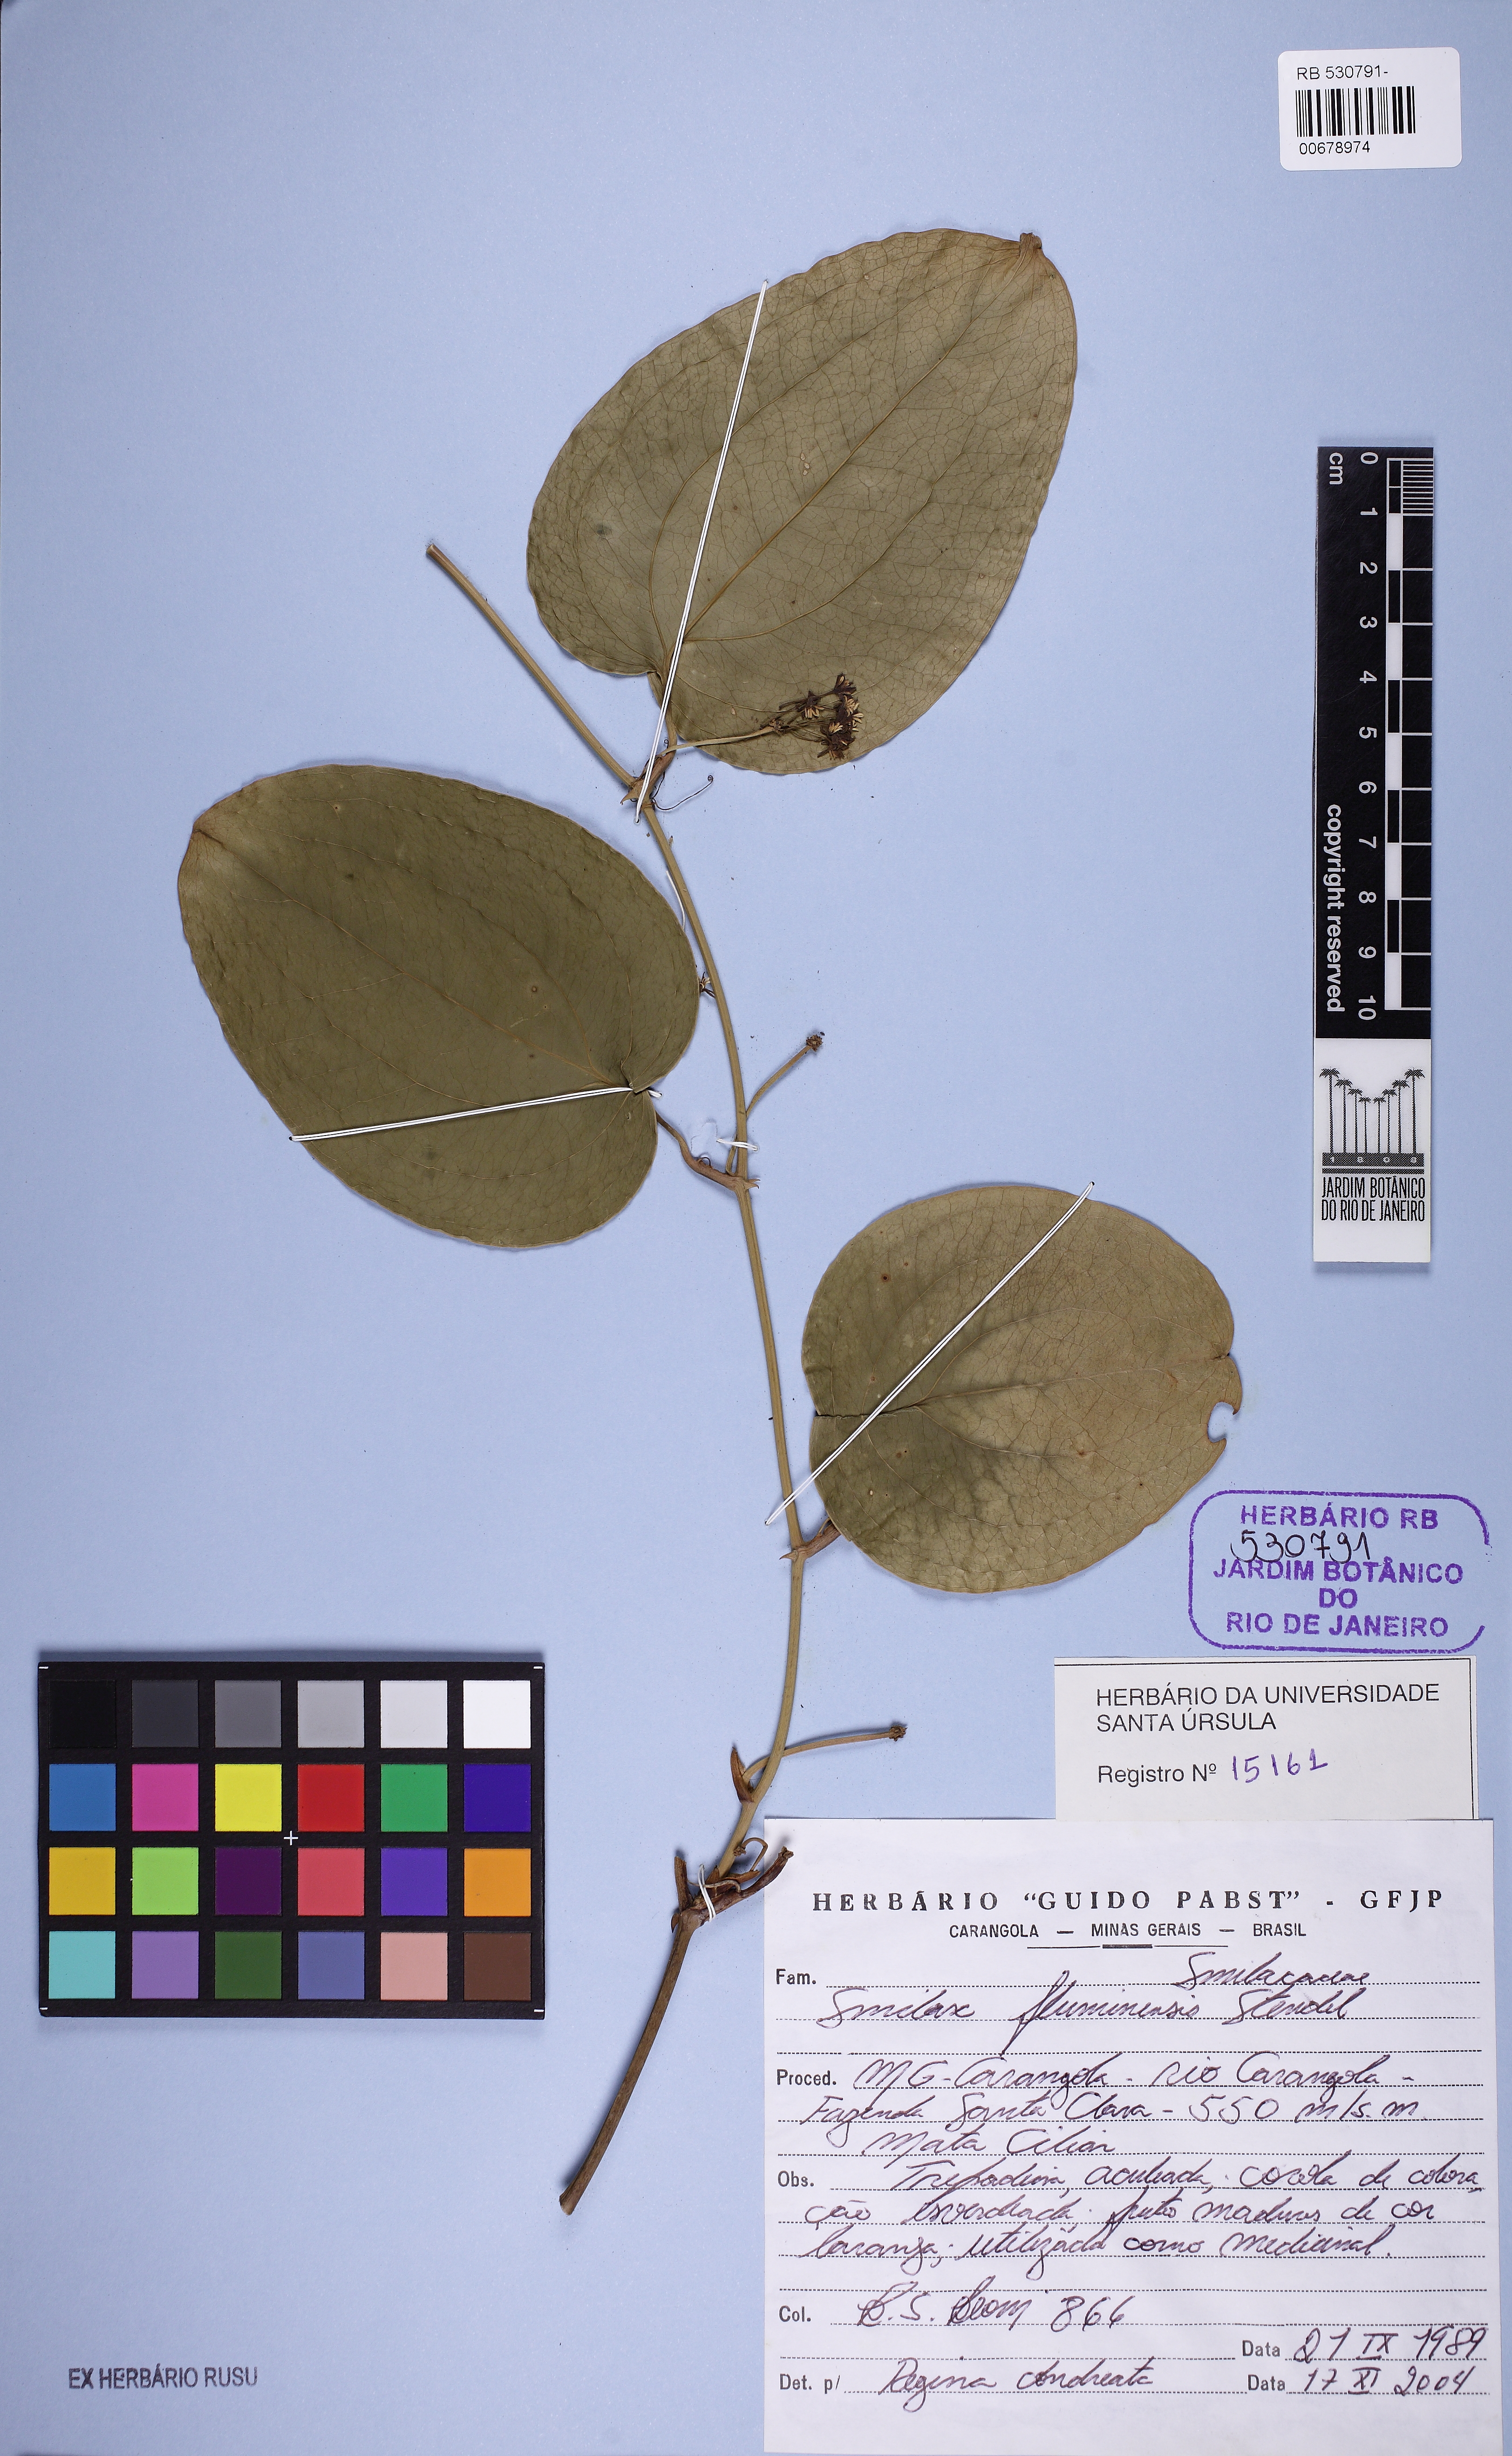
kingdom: Plantae
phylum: Tracheophyta
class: Liliopsida
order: Liliales
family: Smilacaceae
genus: Smilax
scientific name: Smilax fluminensis
